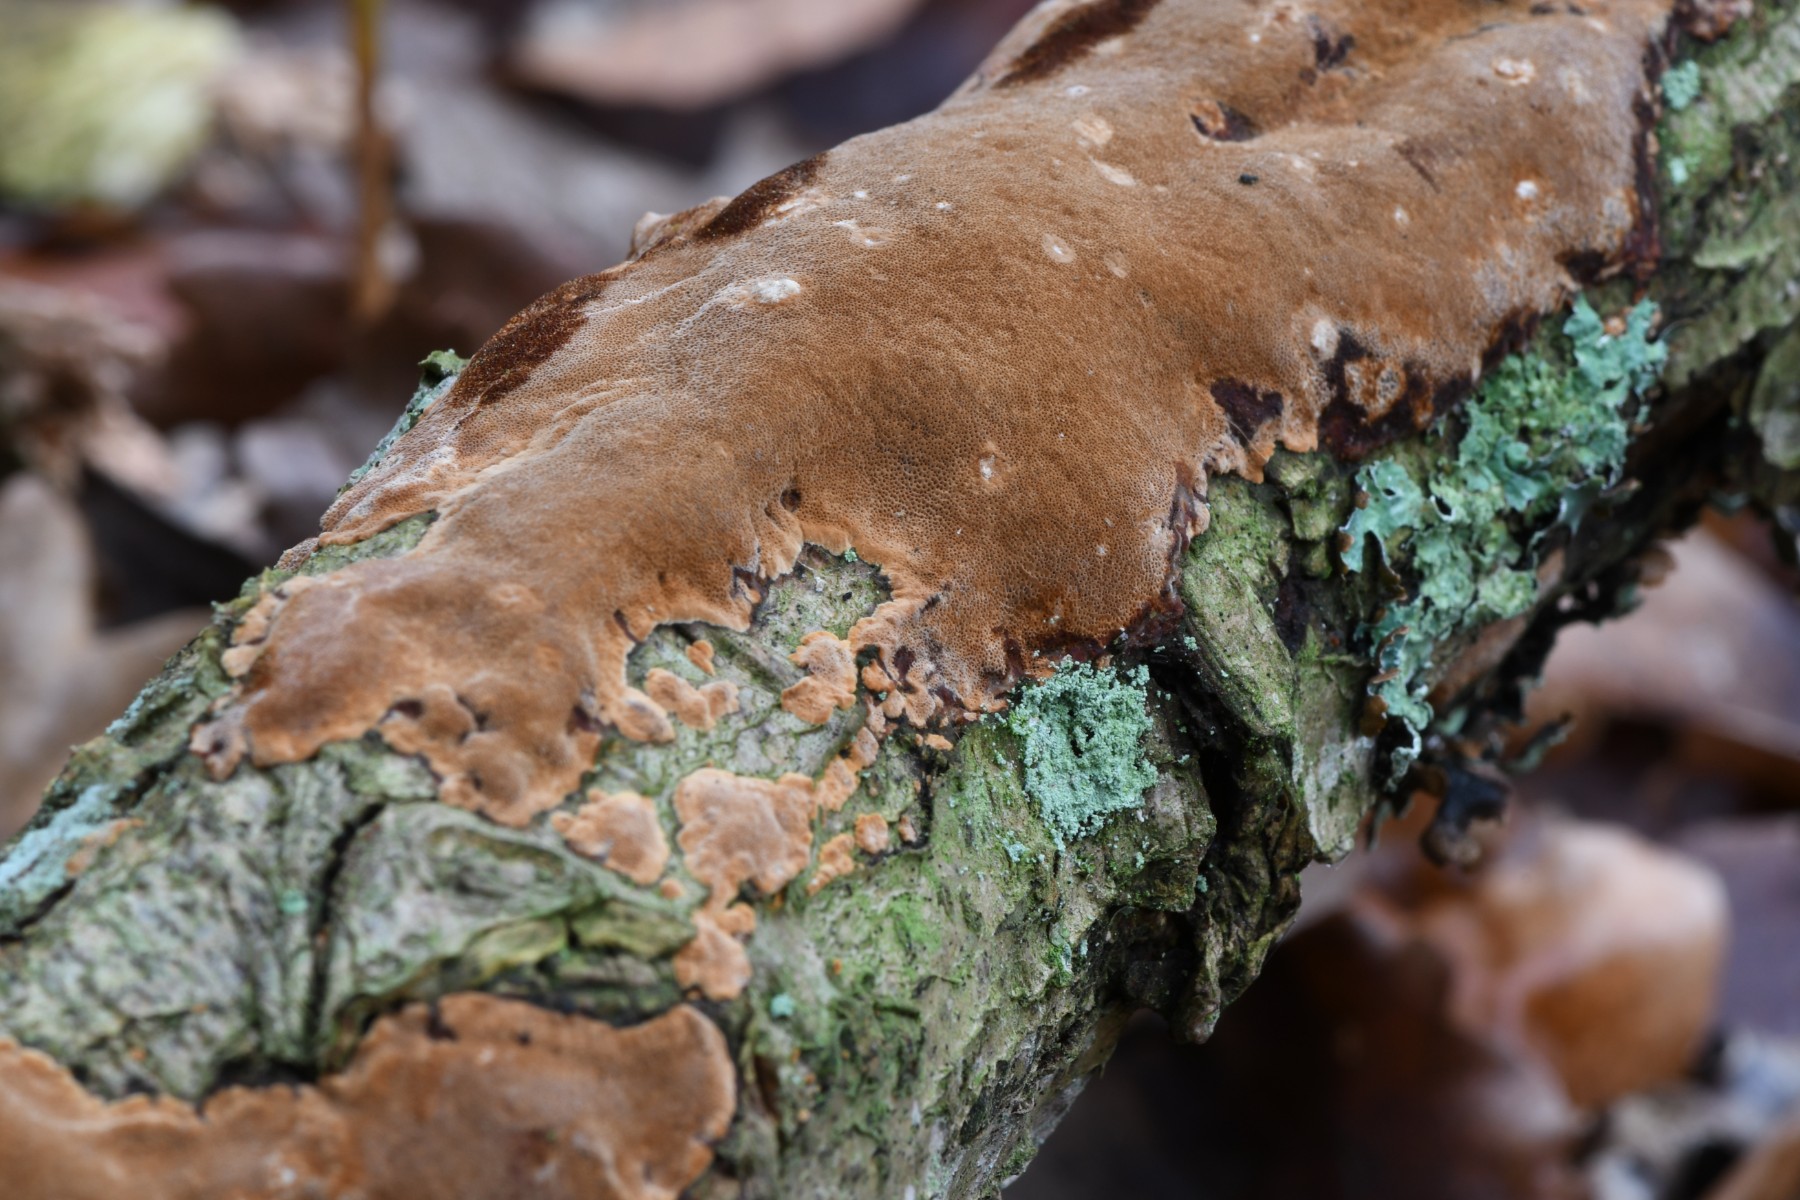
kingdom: Fungi
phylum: Basidiomycota
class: Agaricomycetes
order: Hymenochaetales
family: Hymenochaetaceae
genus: Fuscoporia
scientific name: Fuscoporia ferrea
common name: skorpe-ildporesvamp
